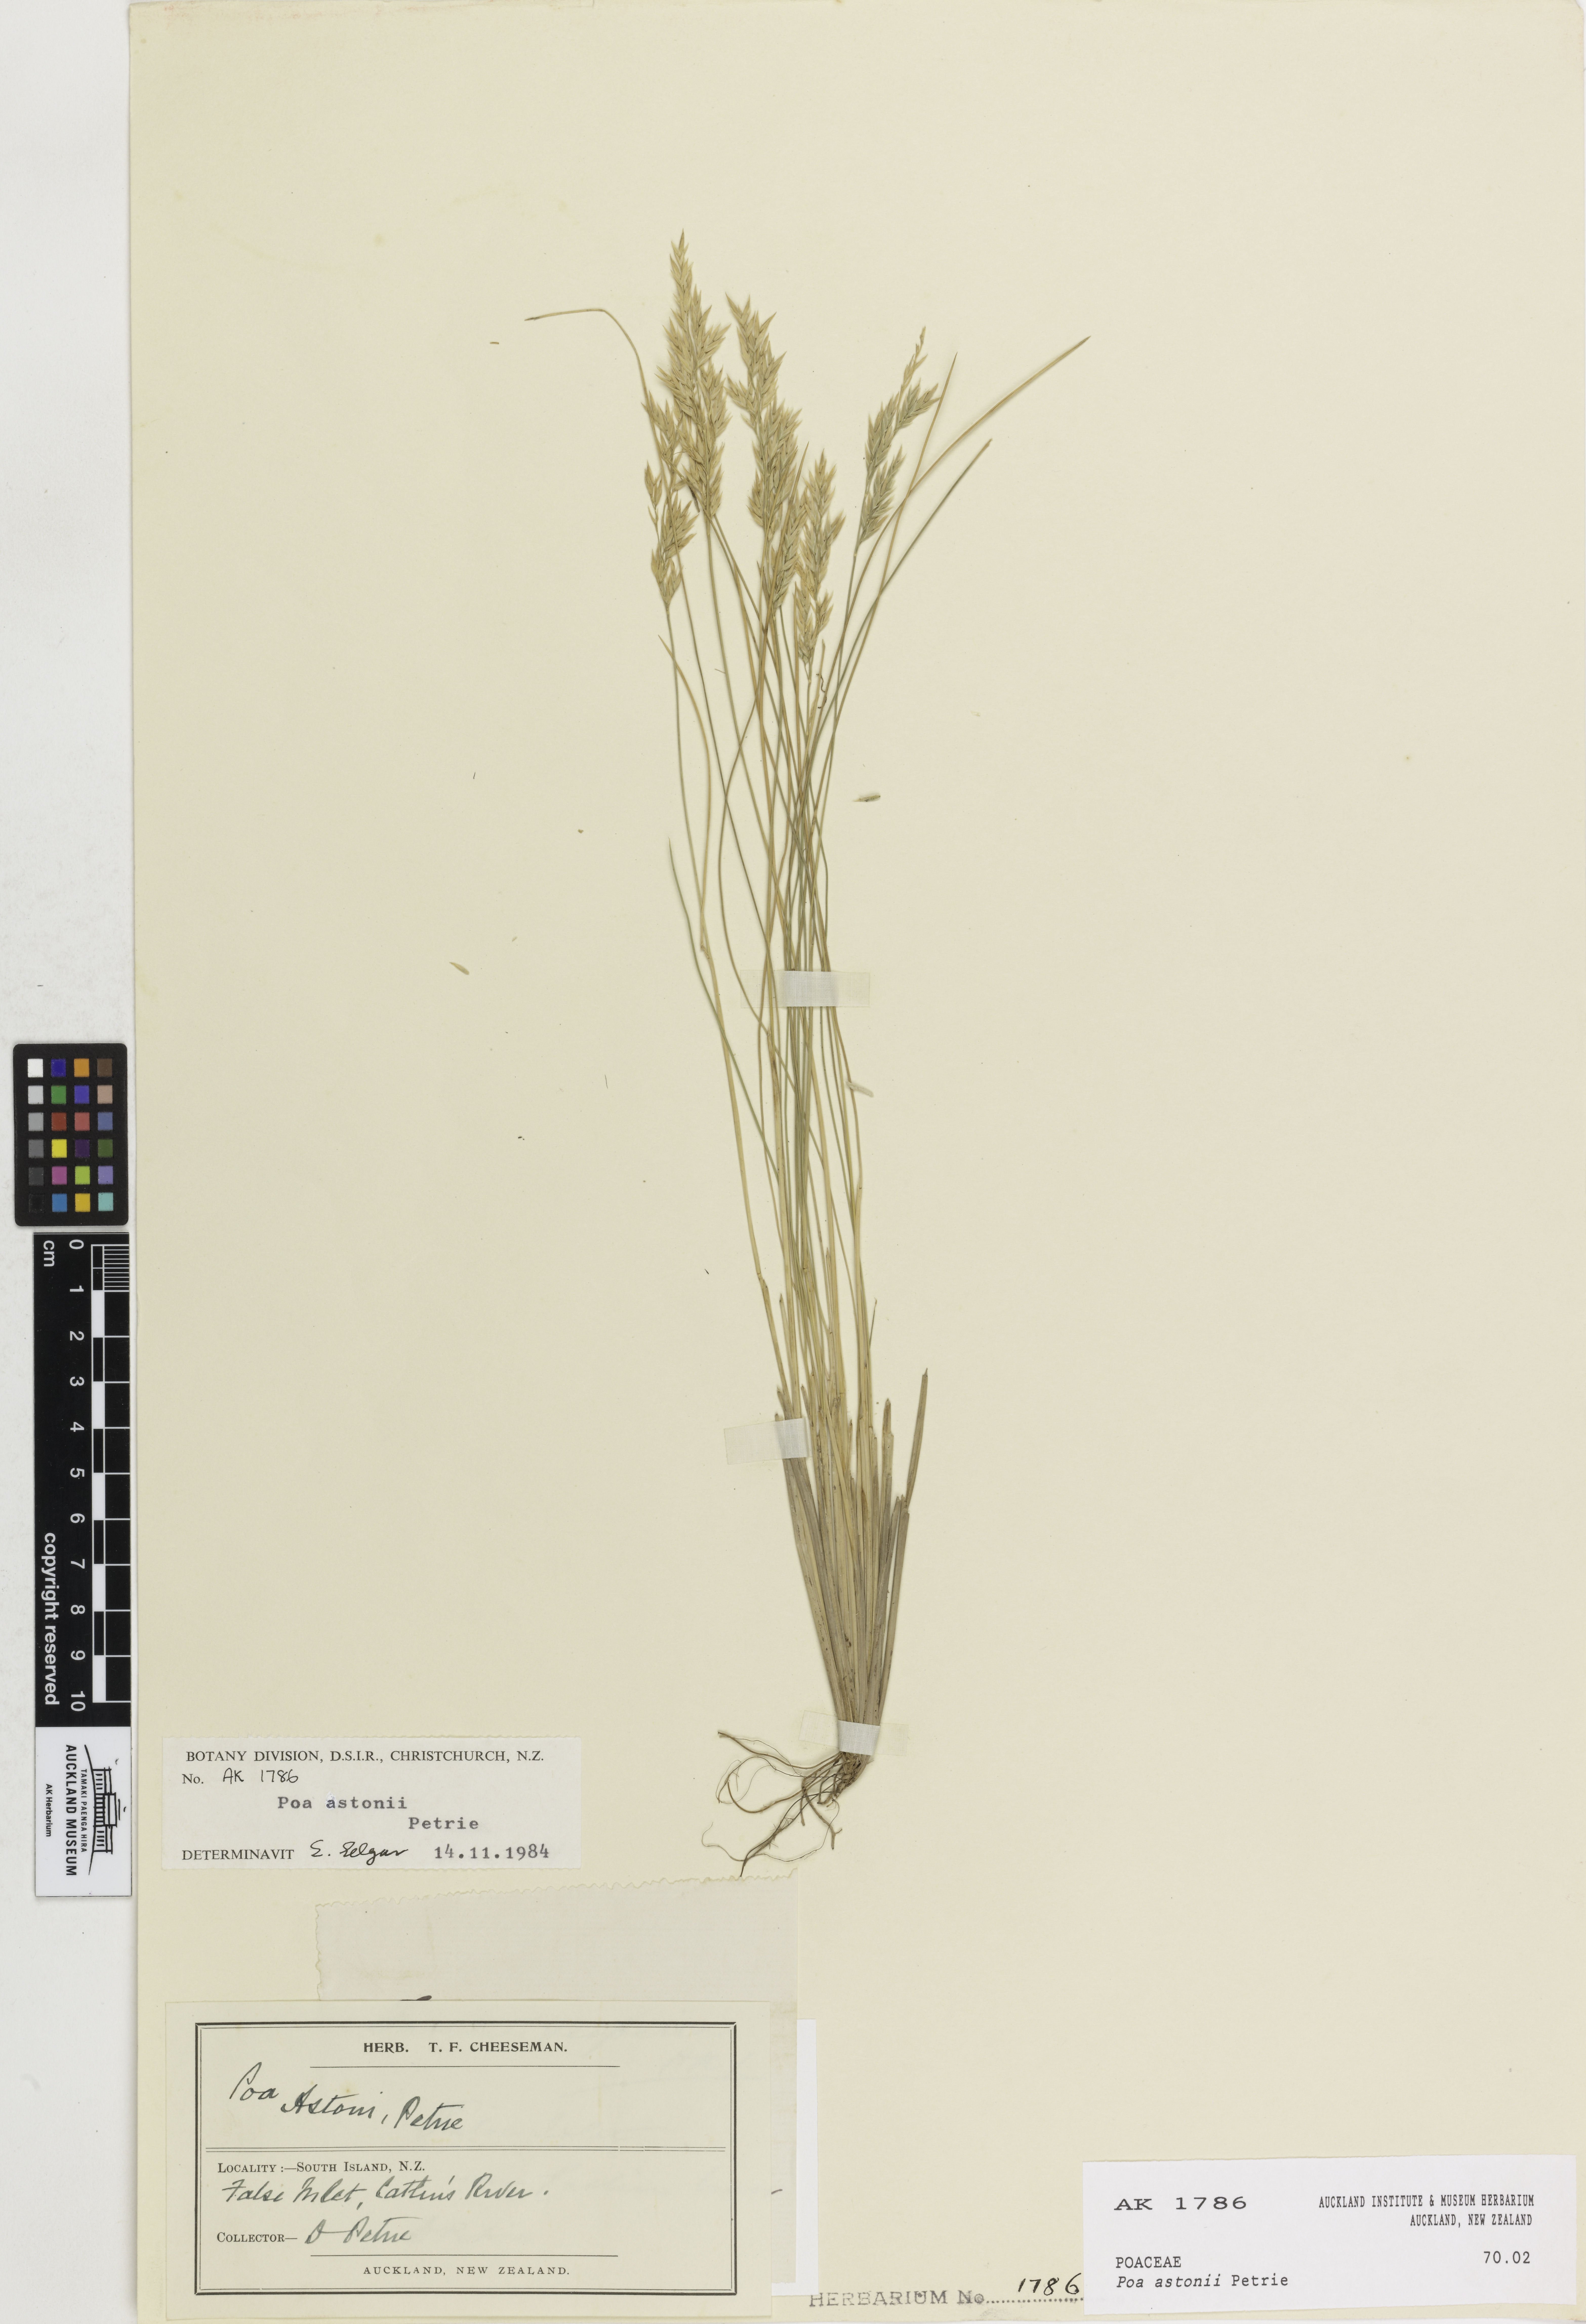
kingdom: Plantae
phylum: Tracheophyta
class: Liliopsida
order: Poales
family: Poaceae
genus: Poa
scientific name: Poa astonii
